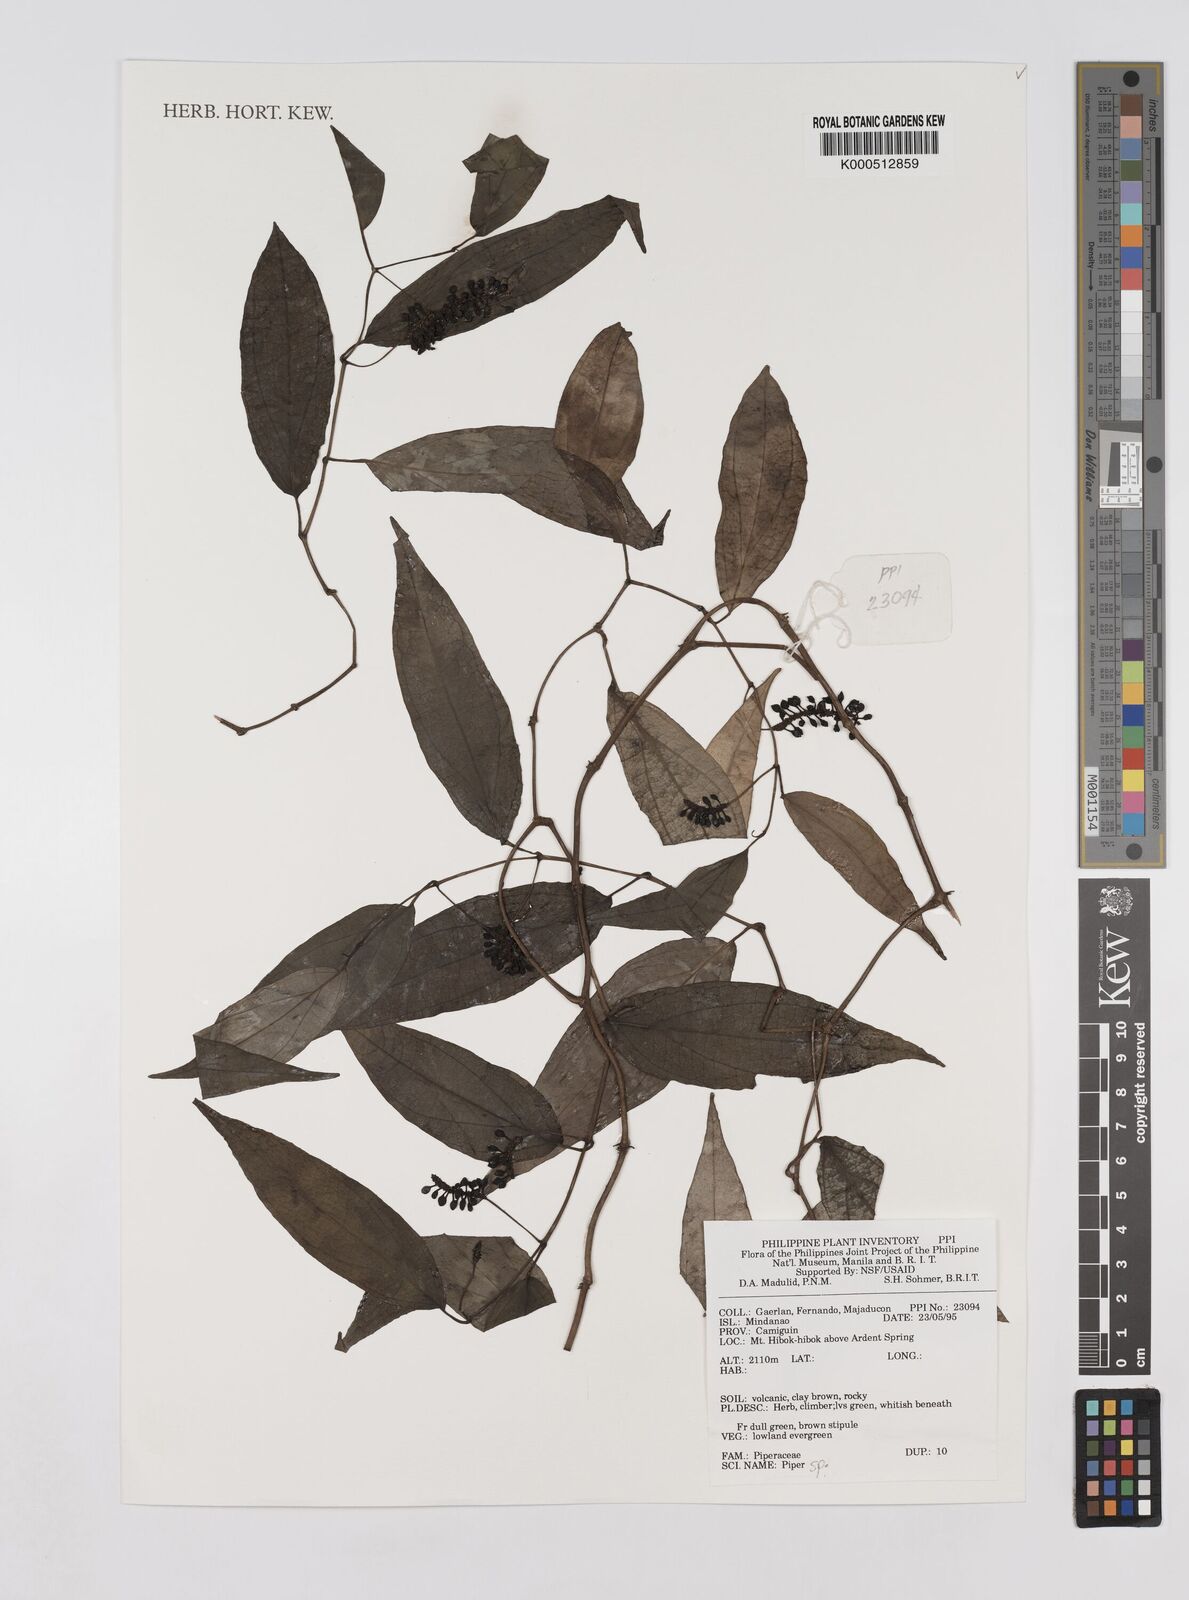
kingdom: Plantae
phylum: Tracheophyta
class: Magnoliopsida
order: Piperales
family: Piperaceae
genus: Piper
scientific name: Piper
